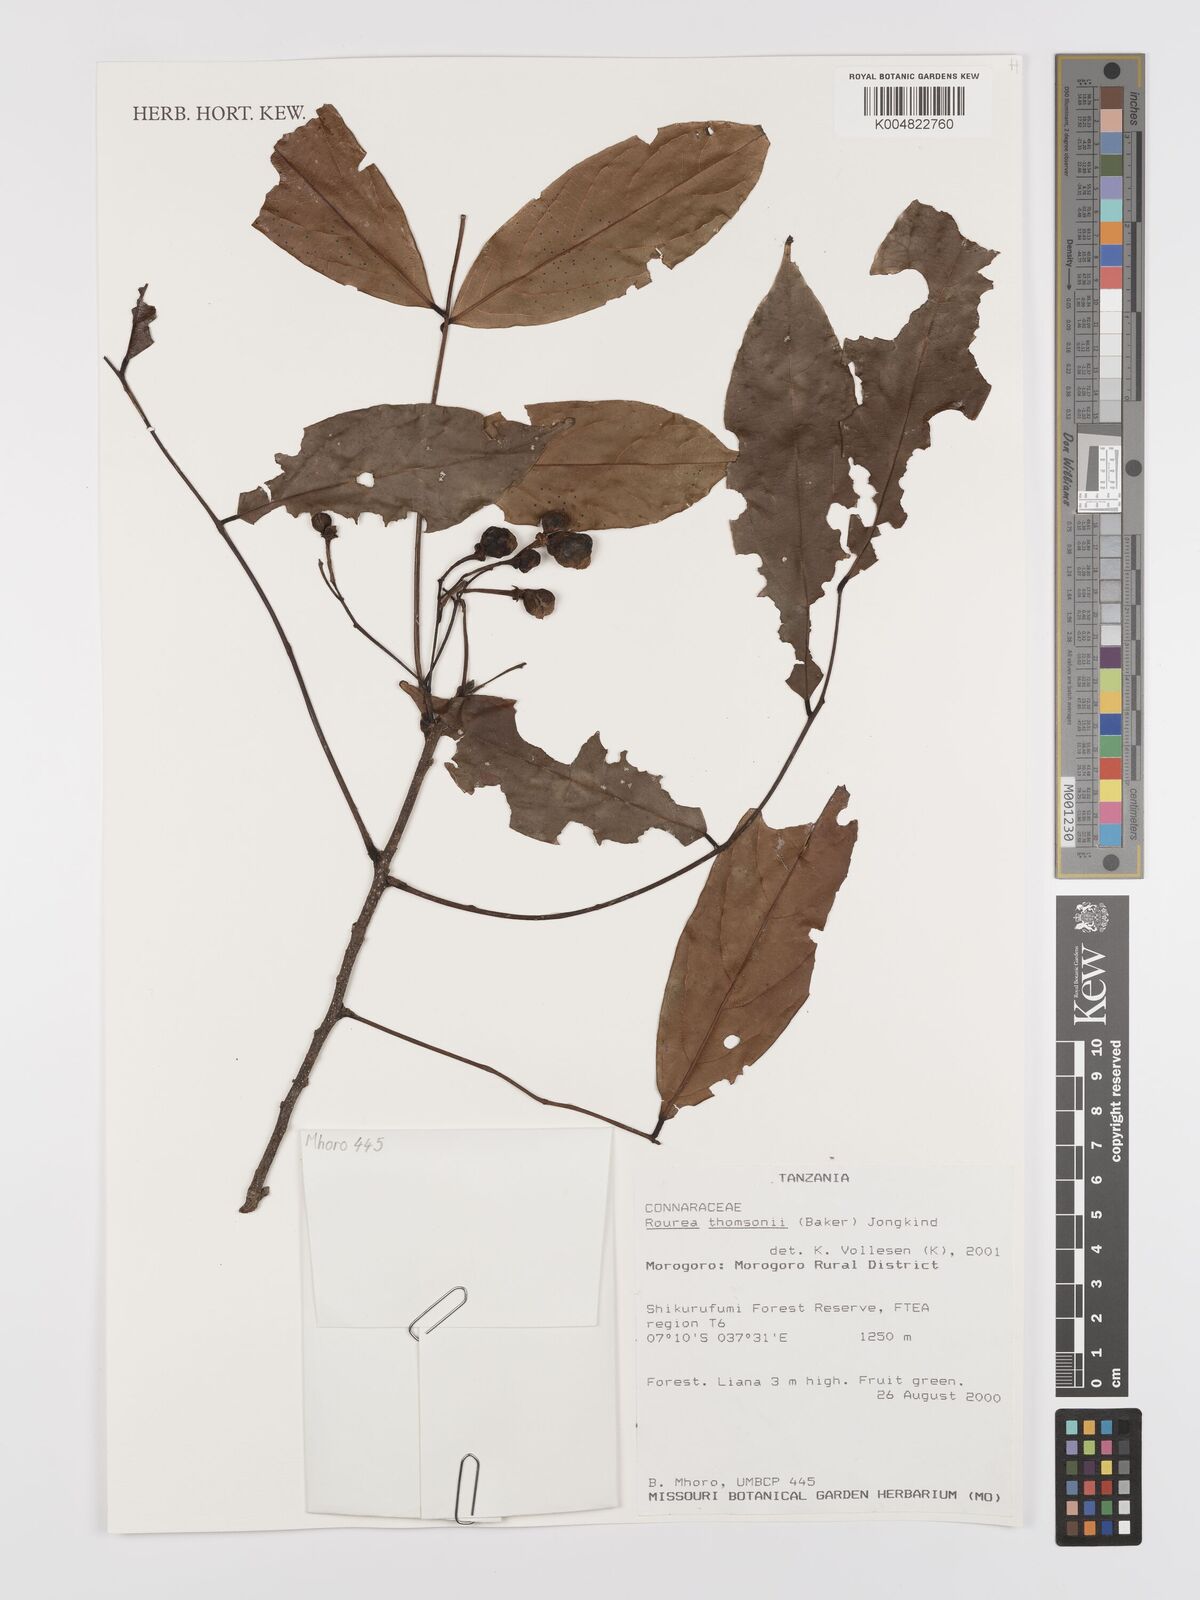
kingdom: Plantae
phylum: Tracheophyta
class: Magnoliopsida
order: Oxalidales
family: Connaraceae
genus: Rourea
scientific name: Rourea thomsonii
